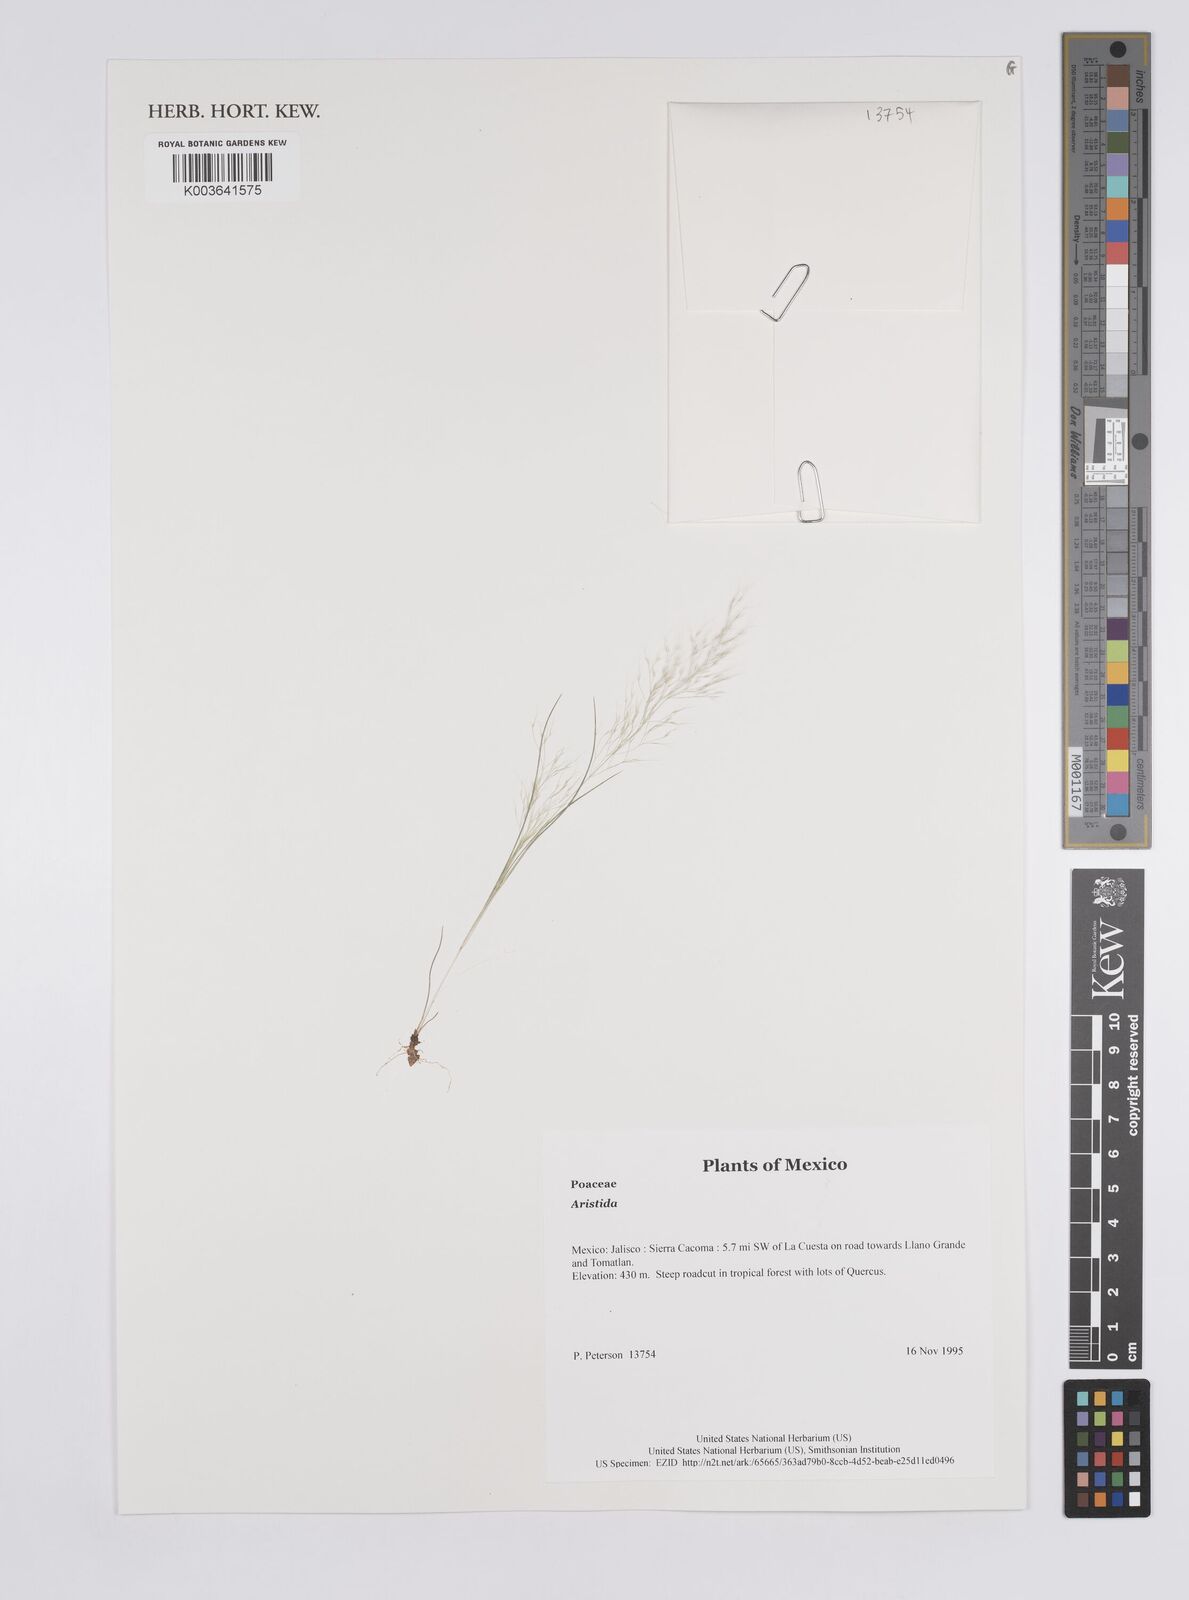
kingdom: Plantae
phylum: Tracheophyta
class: Liliopsida
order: Poales
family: Poaceae
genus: Aristida
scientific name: Aristida
